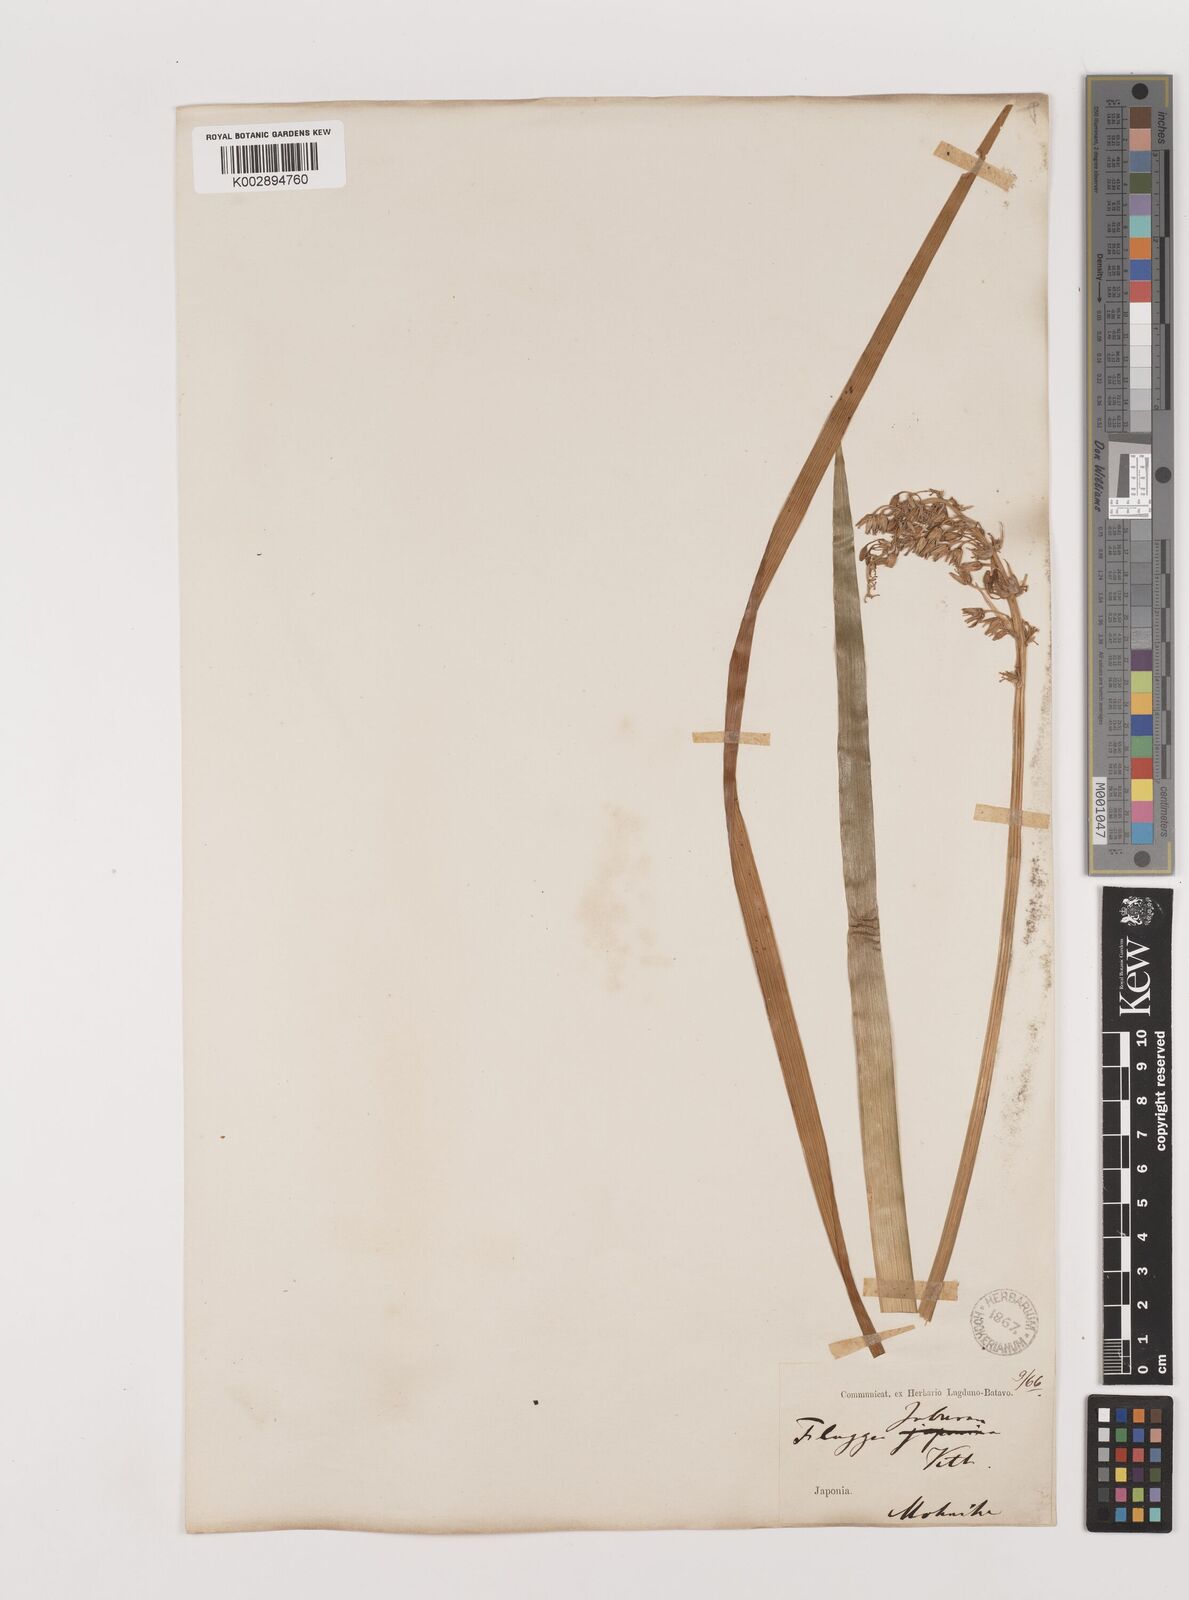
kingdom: Plantae
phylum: Tracheophyta
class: Liliopsida
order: Asparagales
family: Asparagaceae
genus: Ophiopogon
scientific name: Ophiopogon jaburan
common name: Lilyturf
